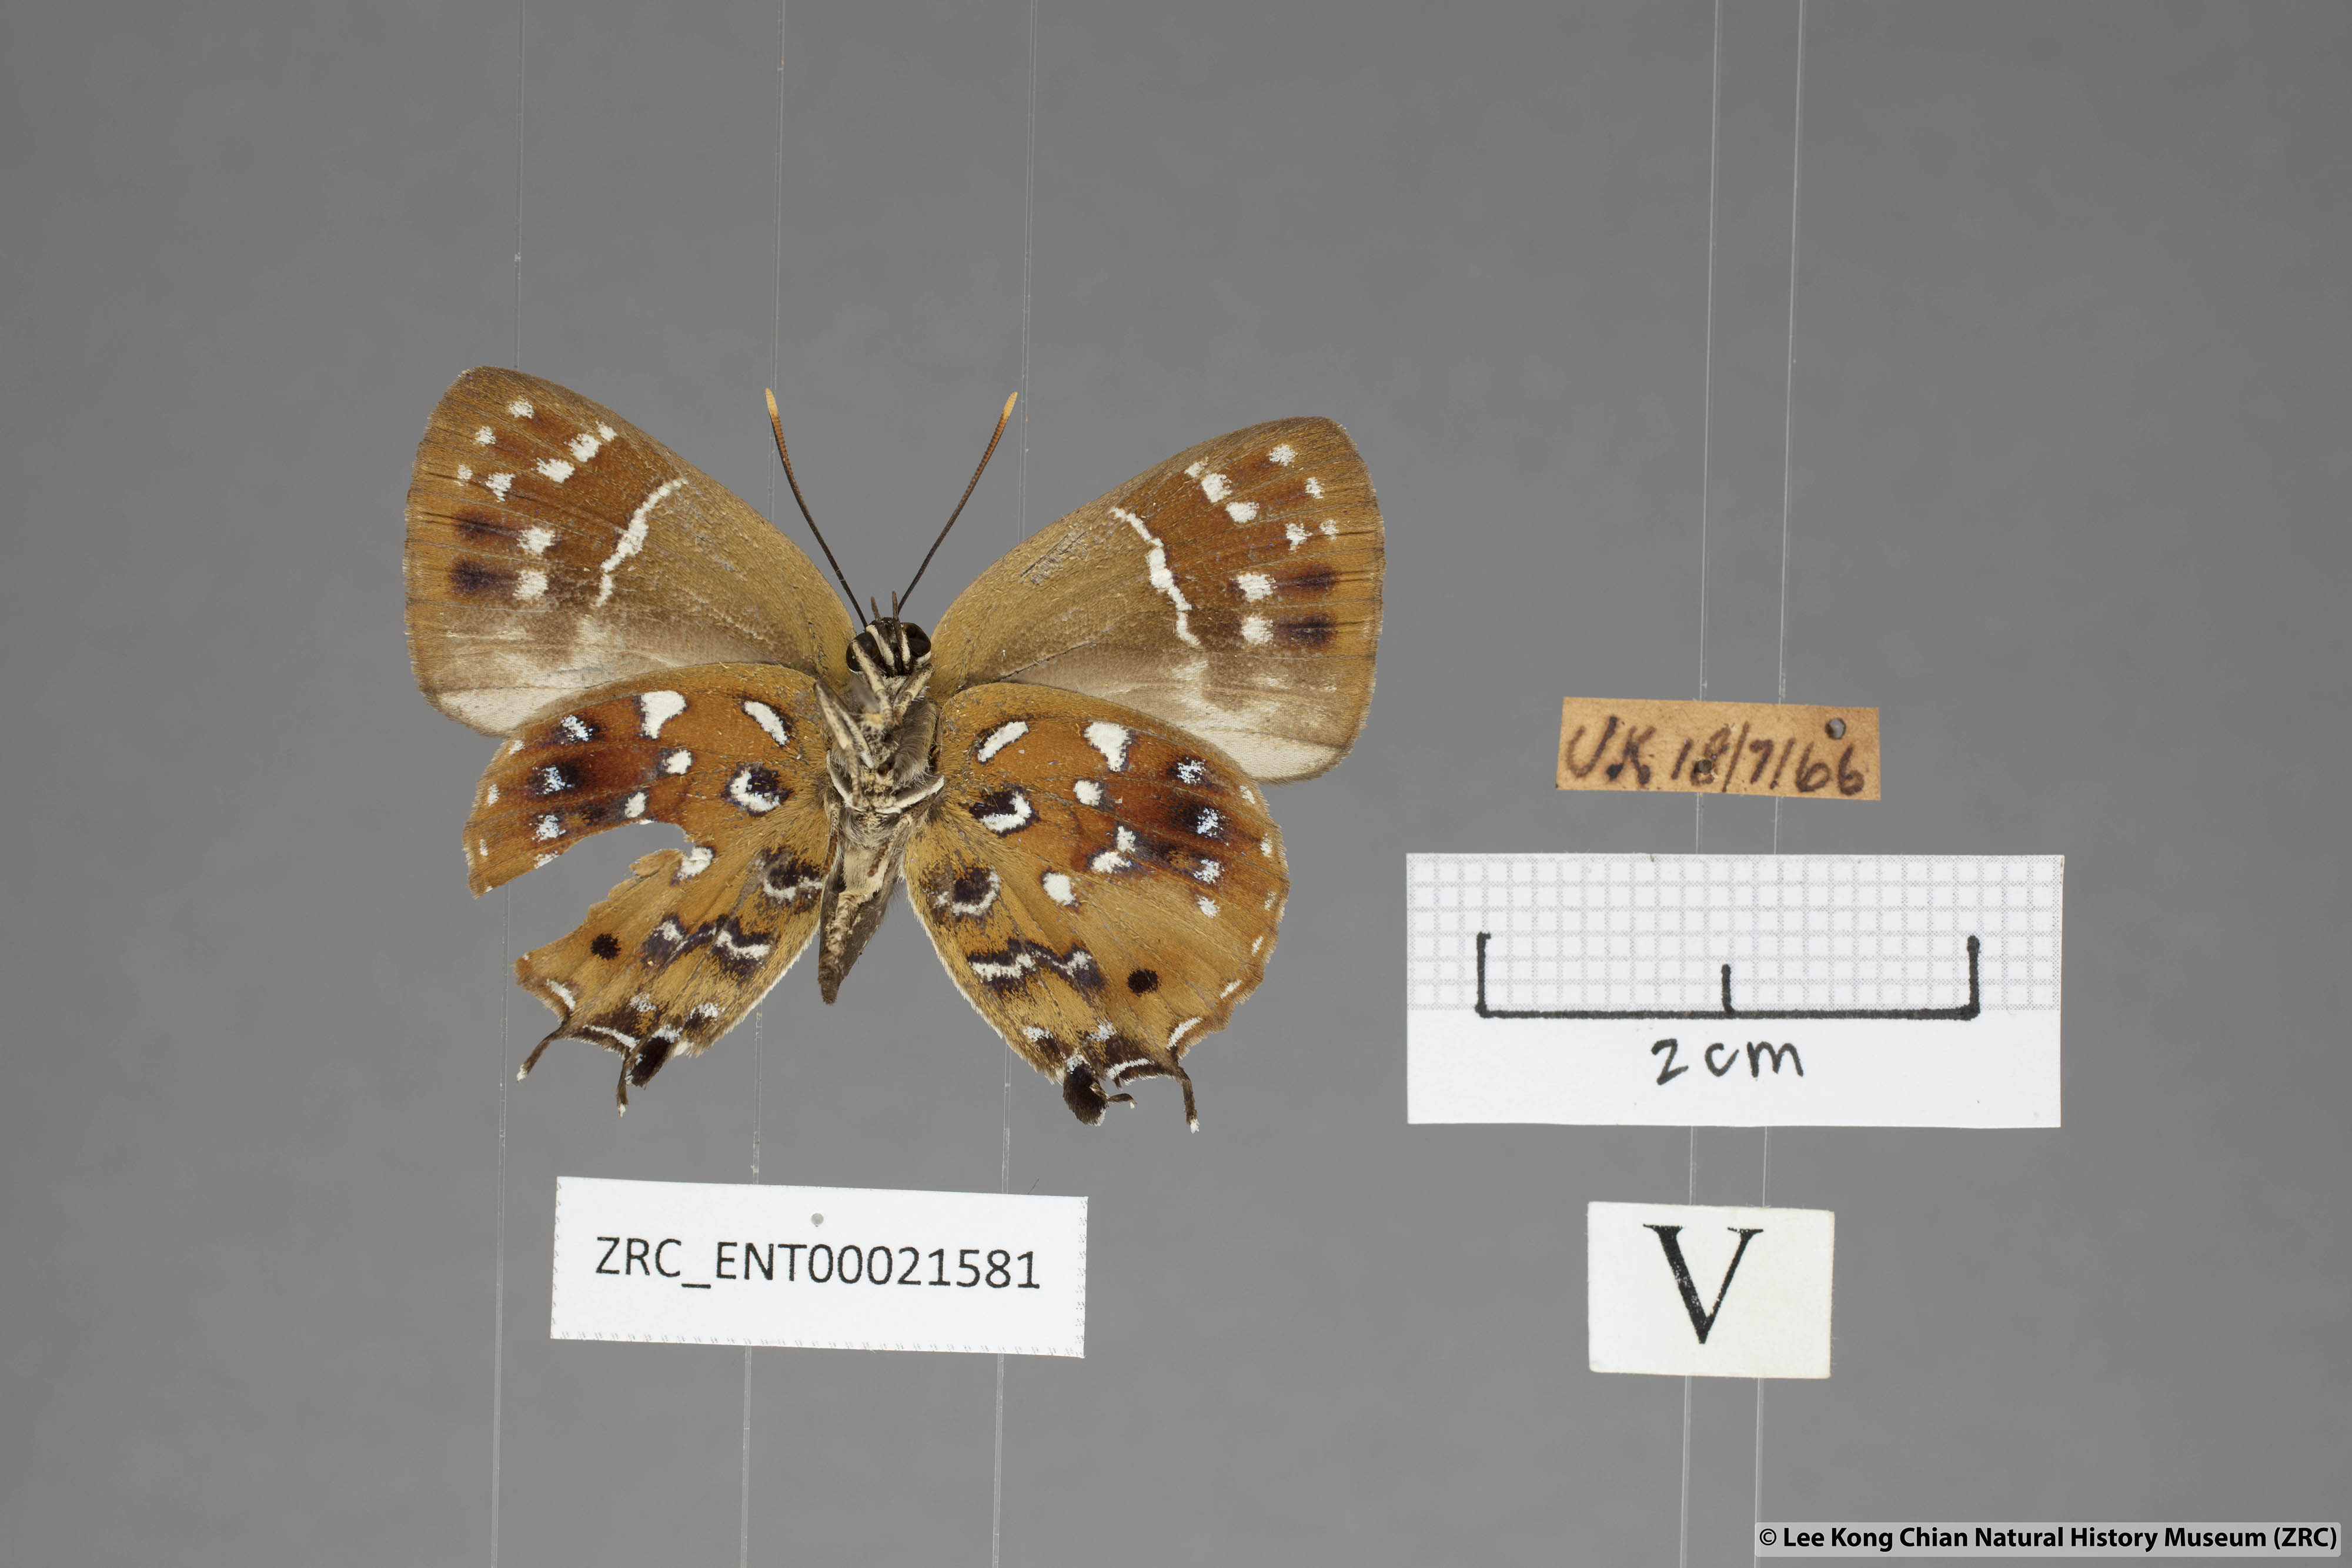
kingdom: Animalia
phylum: Arthropoda
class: Insecta
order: Lepidoptera
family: Lycaenidae
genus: Iraota
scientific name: Iraota
